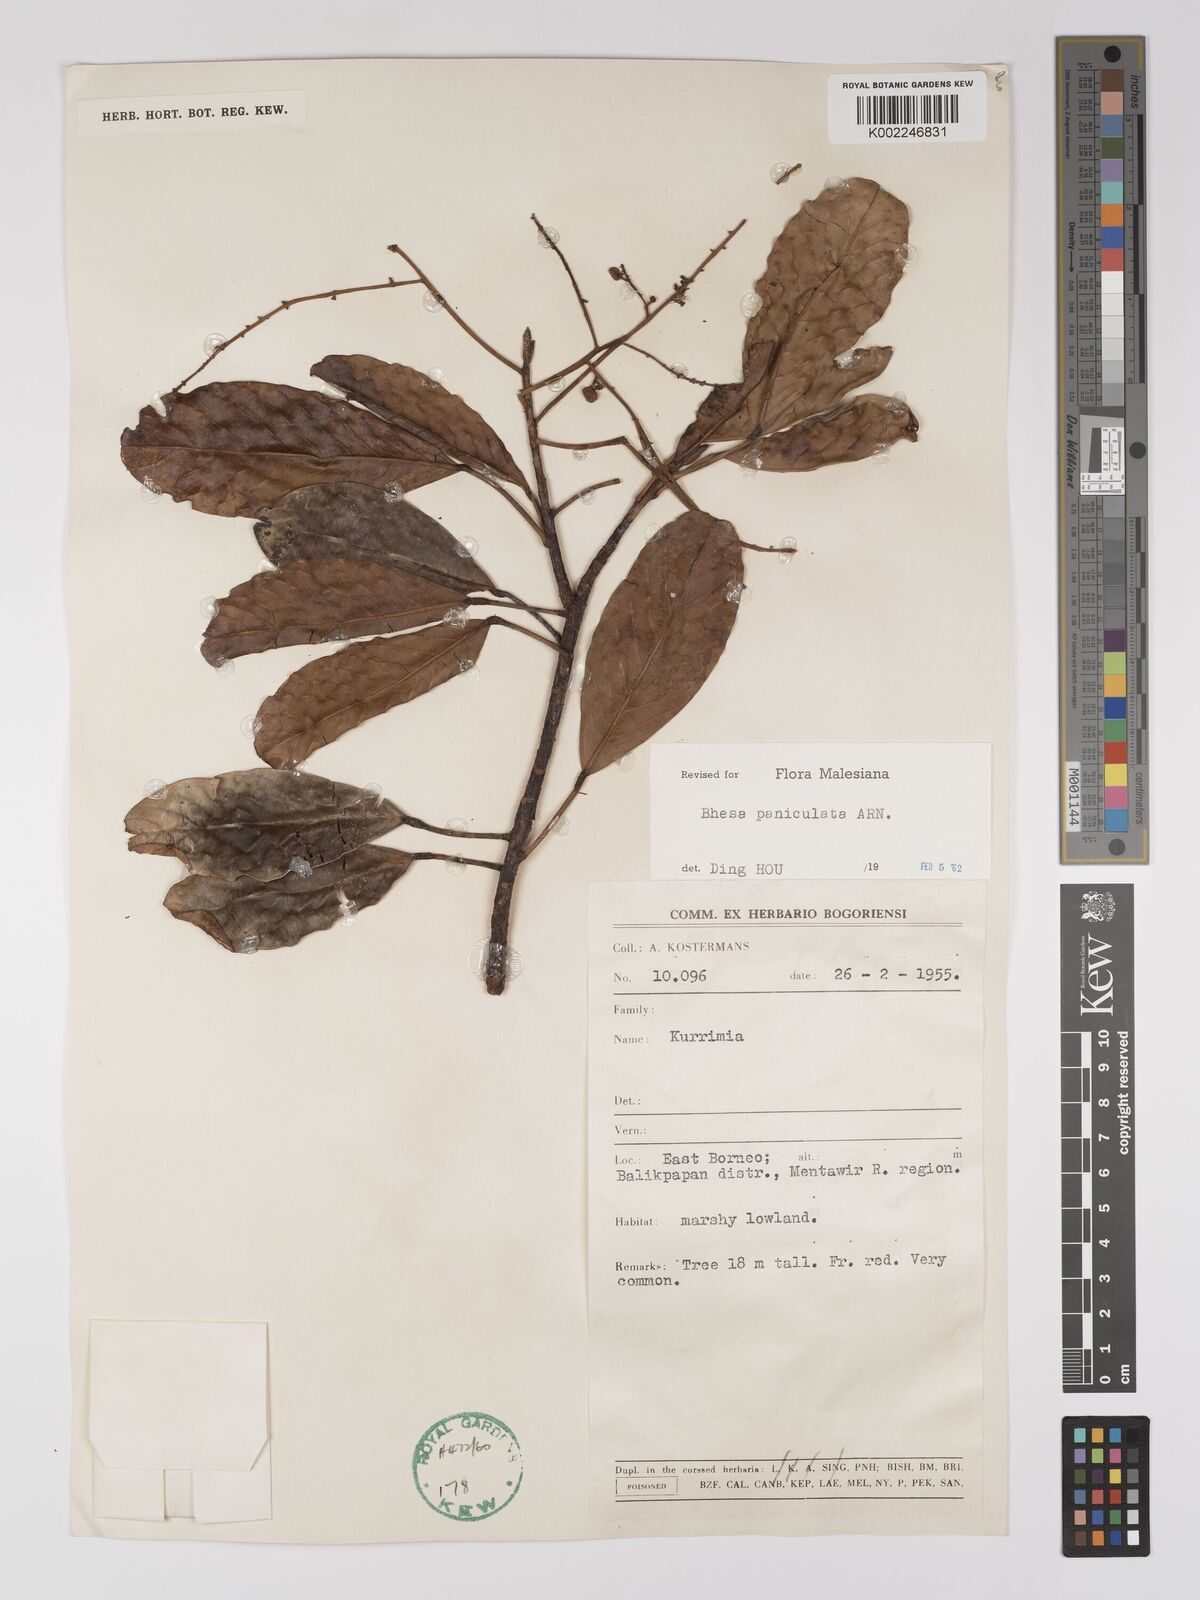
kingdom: Plantae
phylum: Tracheophyta
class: Magnoliopsida
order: Malpighiales
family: Centroplacaceae
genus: Bhesa
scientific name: Bhesa paniculata
